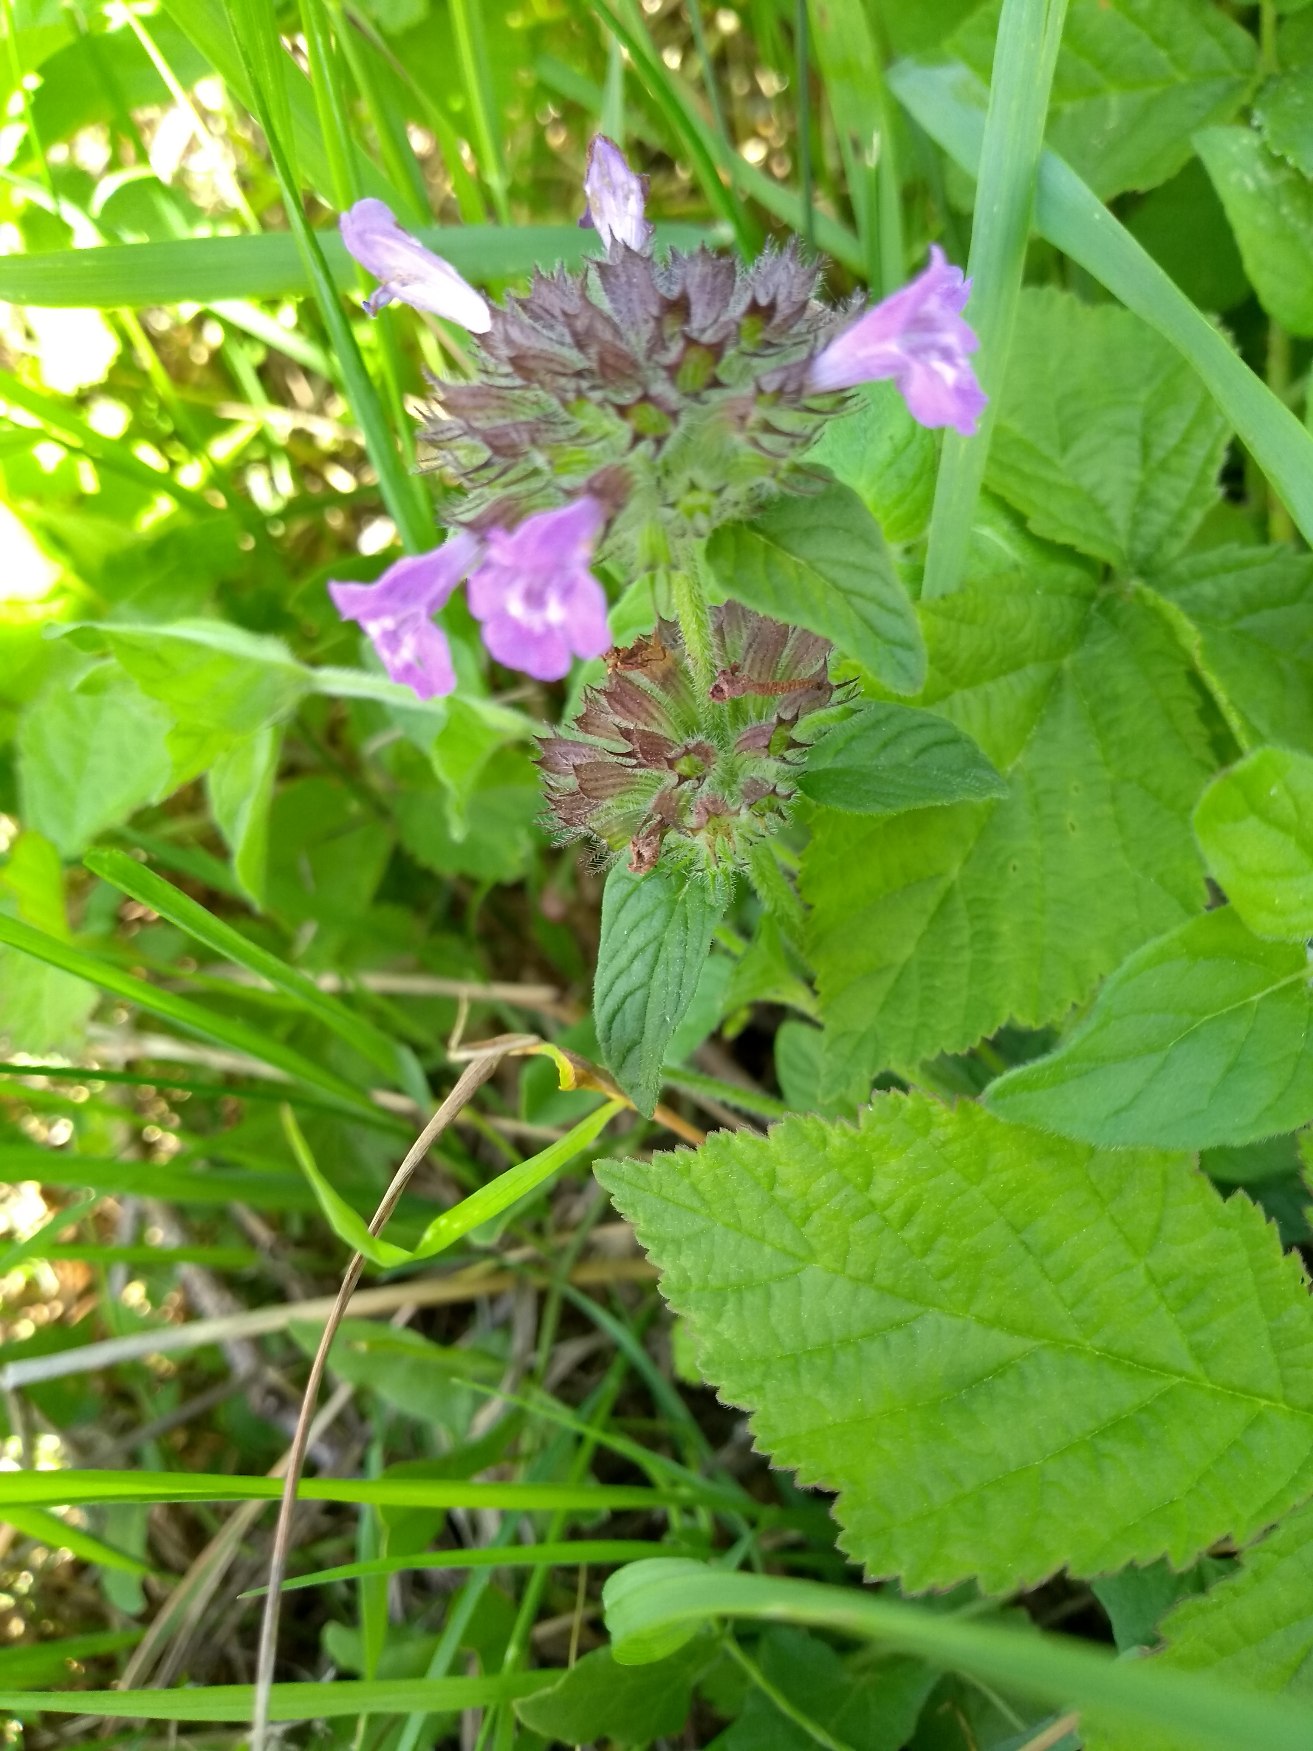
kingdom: Plantae
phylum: Tracheophyta
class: Magnoliopsida
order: Lamiales
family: Lamiaceae
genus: Clinopodium
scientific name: Clinopodium vulgare
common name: Kransbørste
